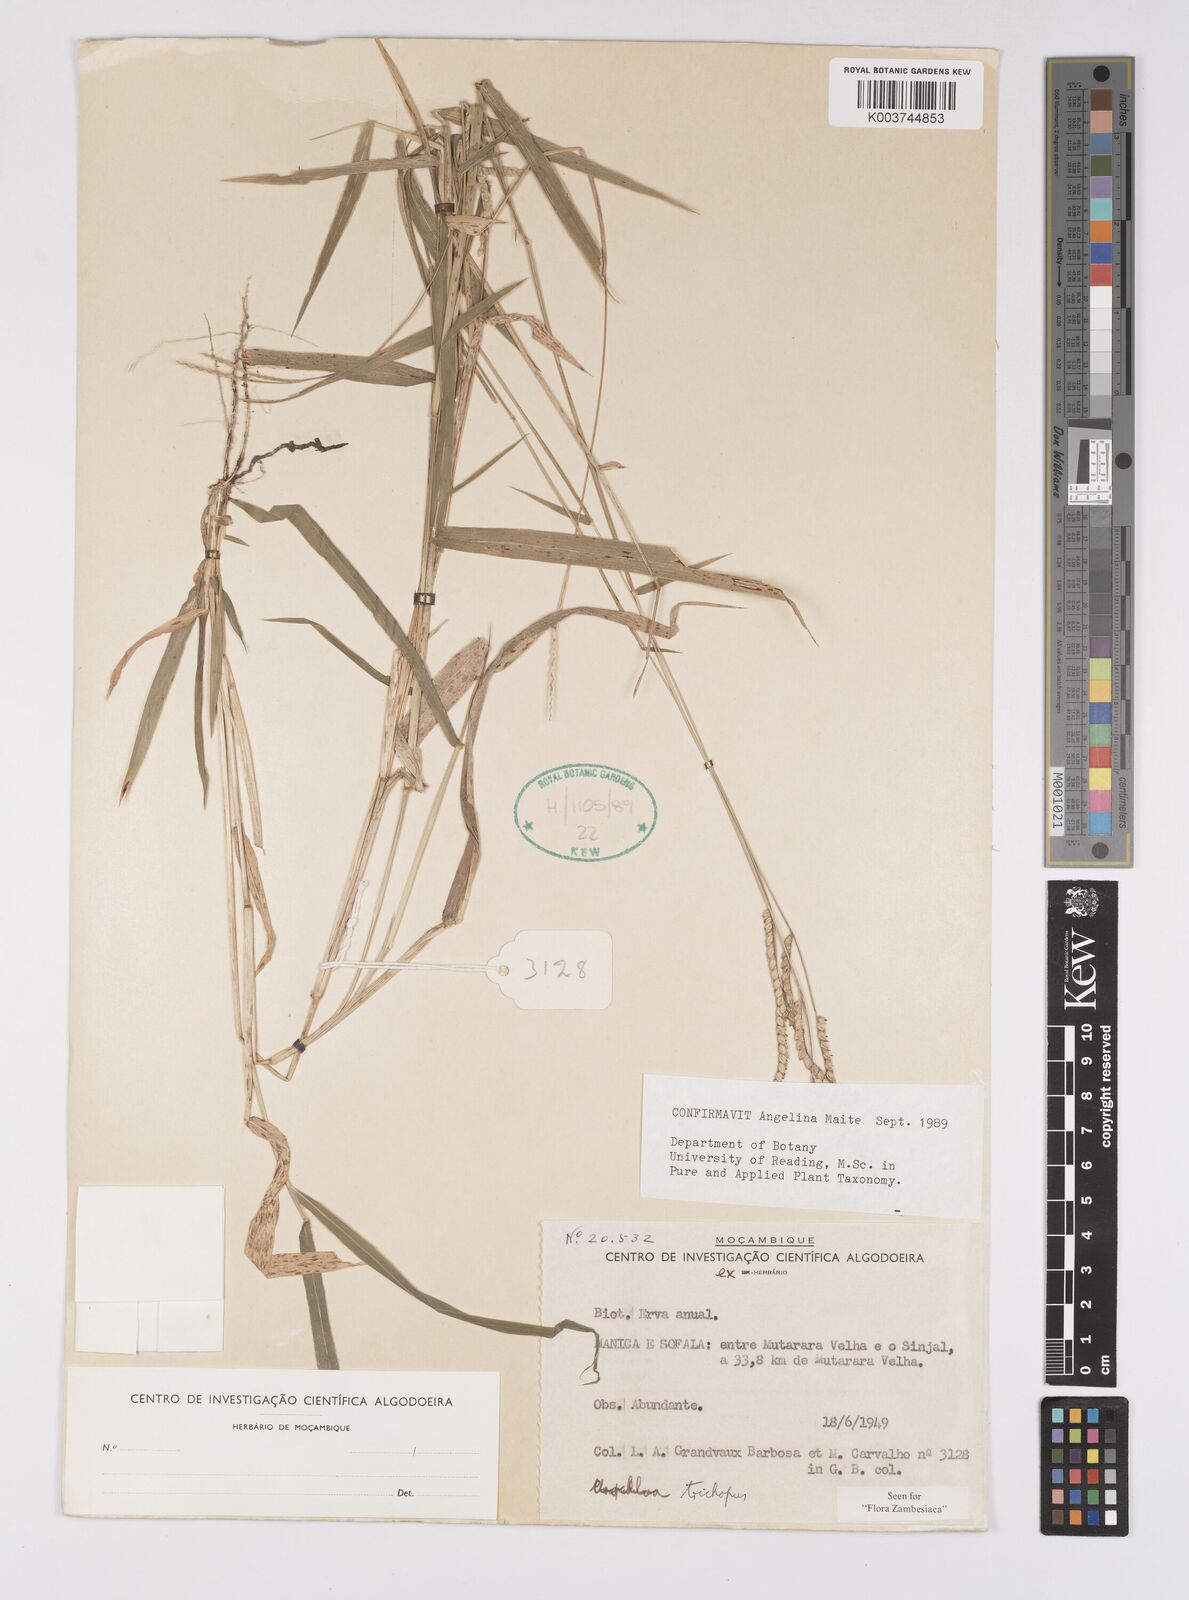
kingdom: Plantae
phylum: Tracheophyta
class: Liliopsida
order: Poales
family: Poaceae
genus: Urochloa
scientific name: Urochloa trichopus
